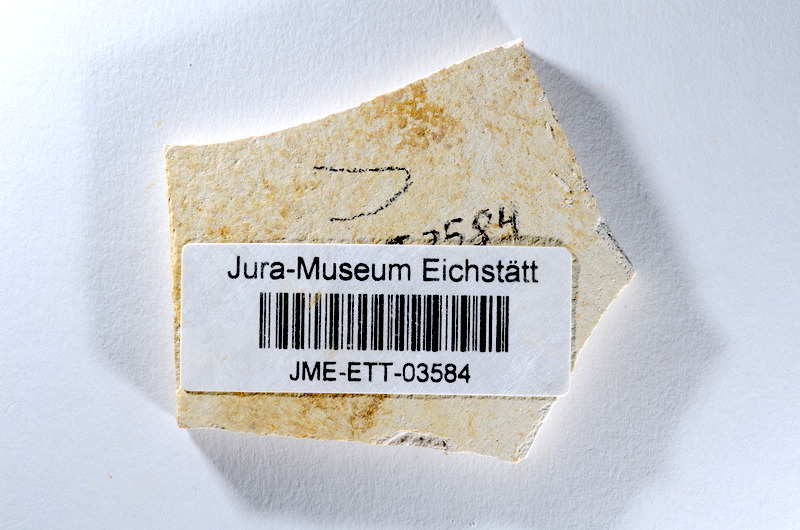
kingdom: Animalia
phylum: Chordata
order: Salmoniformes
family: Orthogonikleithridae
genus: Orthogonikleithrus
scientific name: Orthogonikleithrus hoelli
